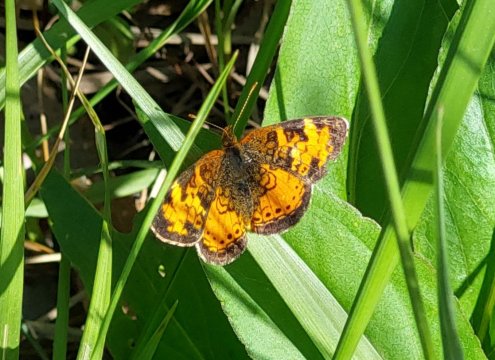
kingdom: Animalia
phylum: Arthropoda
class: Insecta
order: Lepidoptera
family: Nymphalidae
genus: Phyciodes
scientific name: Phyciodes tharos
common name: Northern Crescent
